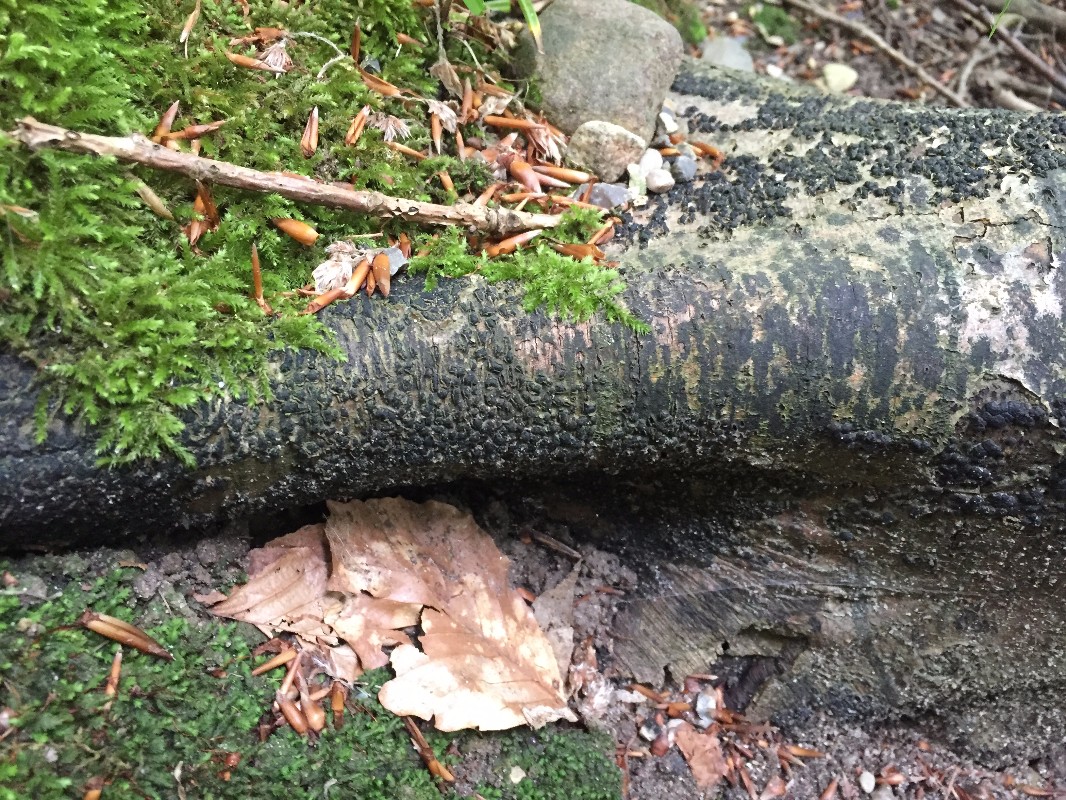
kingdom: Fungi
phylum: Ascomycota
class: Sordariomycetes
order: Xylariales
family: Melogrammataceae
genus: Melogramma
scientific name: Melogramma spiniferum
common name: bøgefod-kulhals
